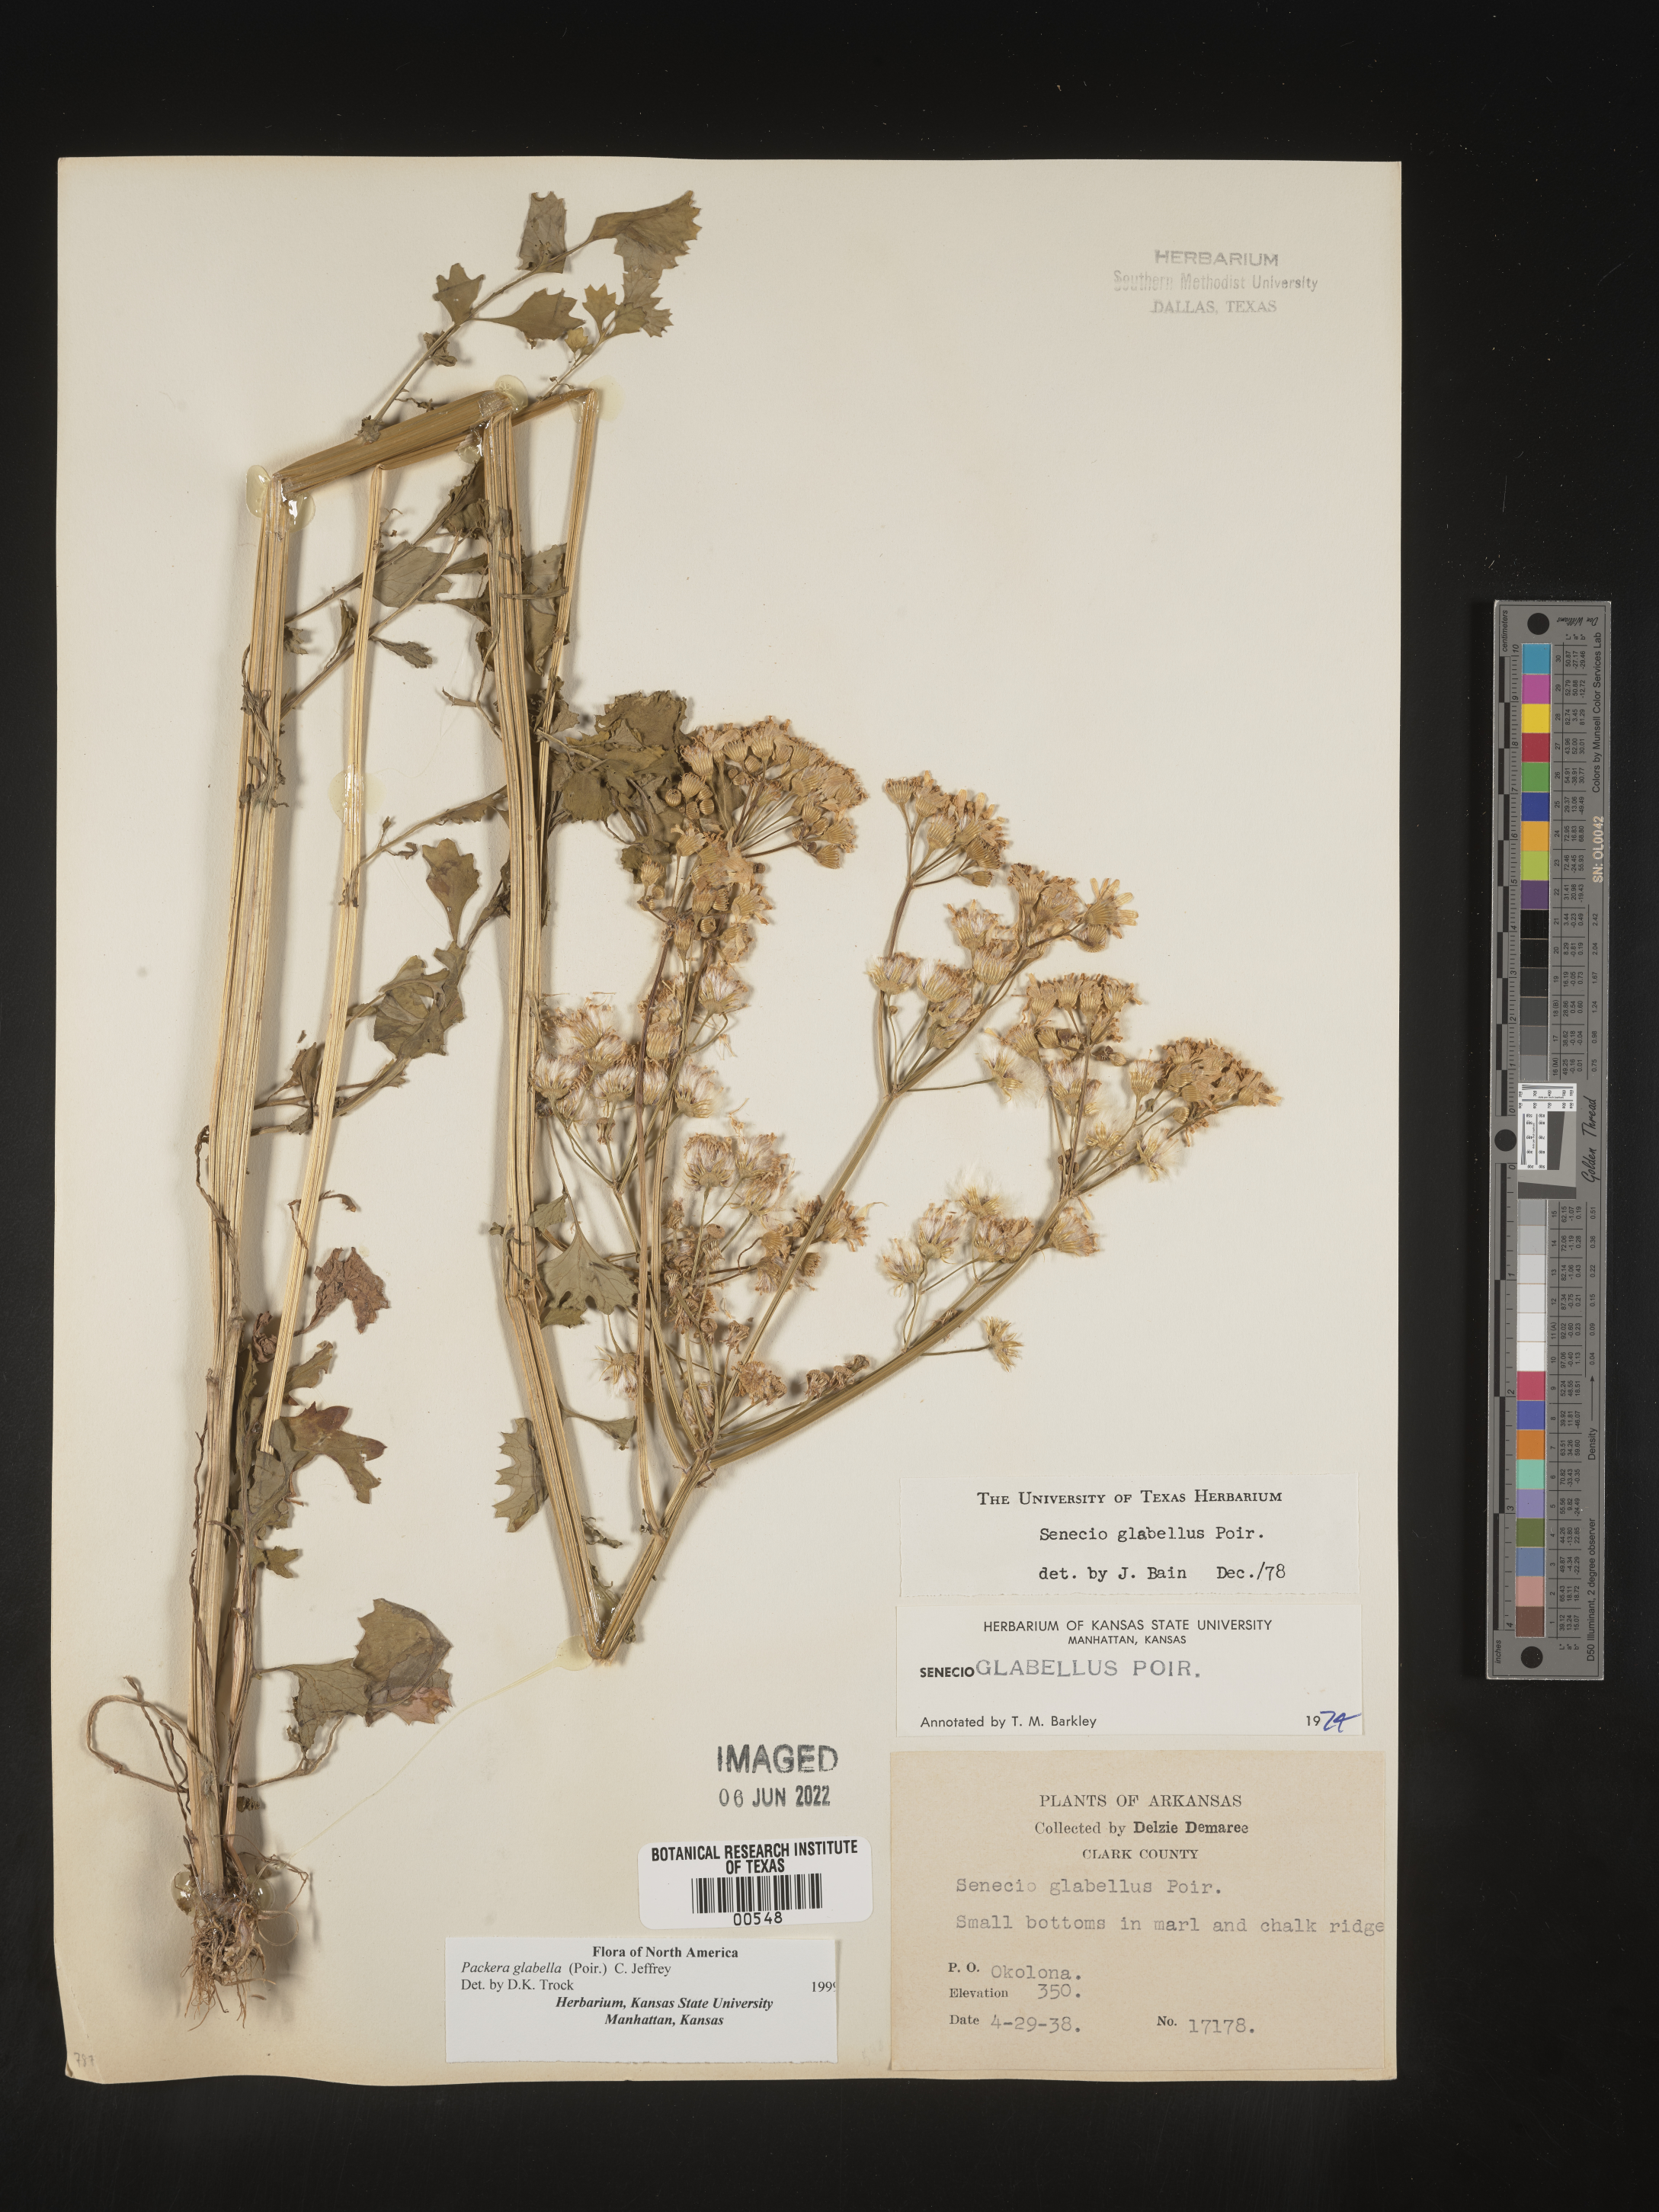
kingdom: Plantae
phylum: Tracheophyta
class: Magnoliopsida
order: Asterales
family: Asteraceae
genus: Packera
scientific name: Packera glabella
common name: Butterweed
